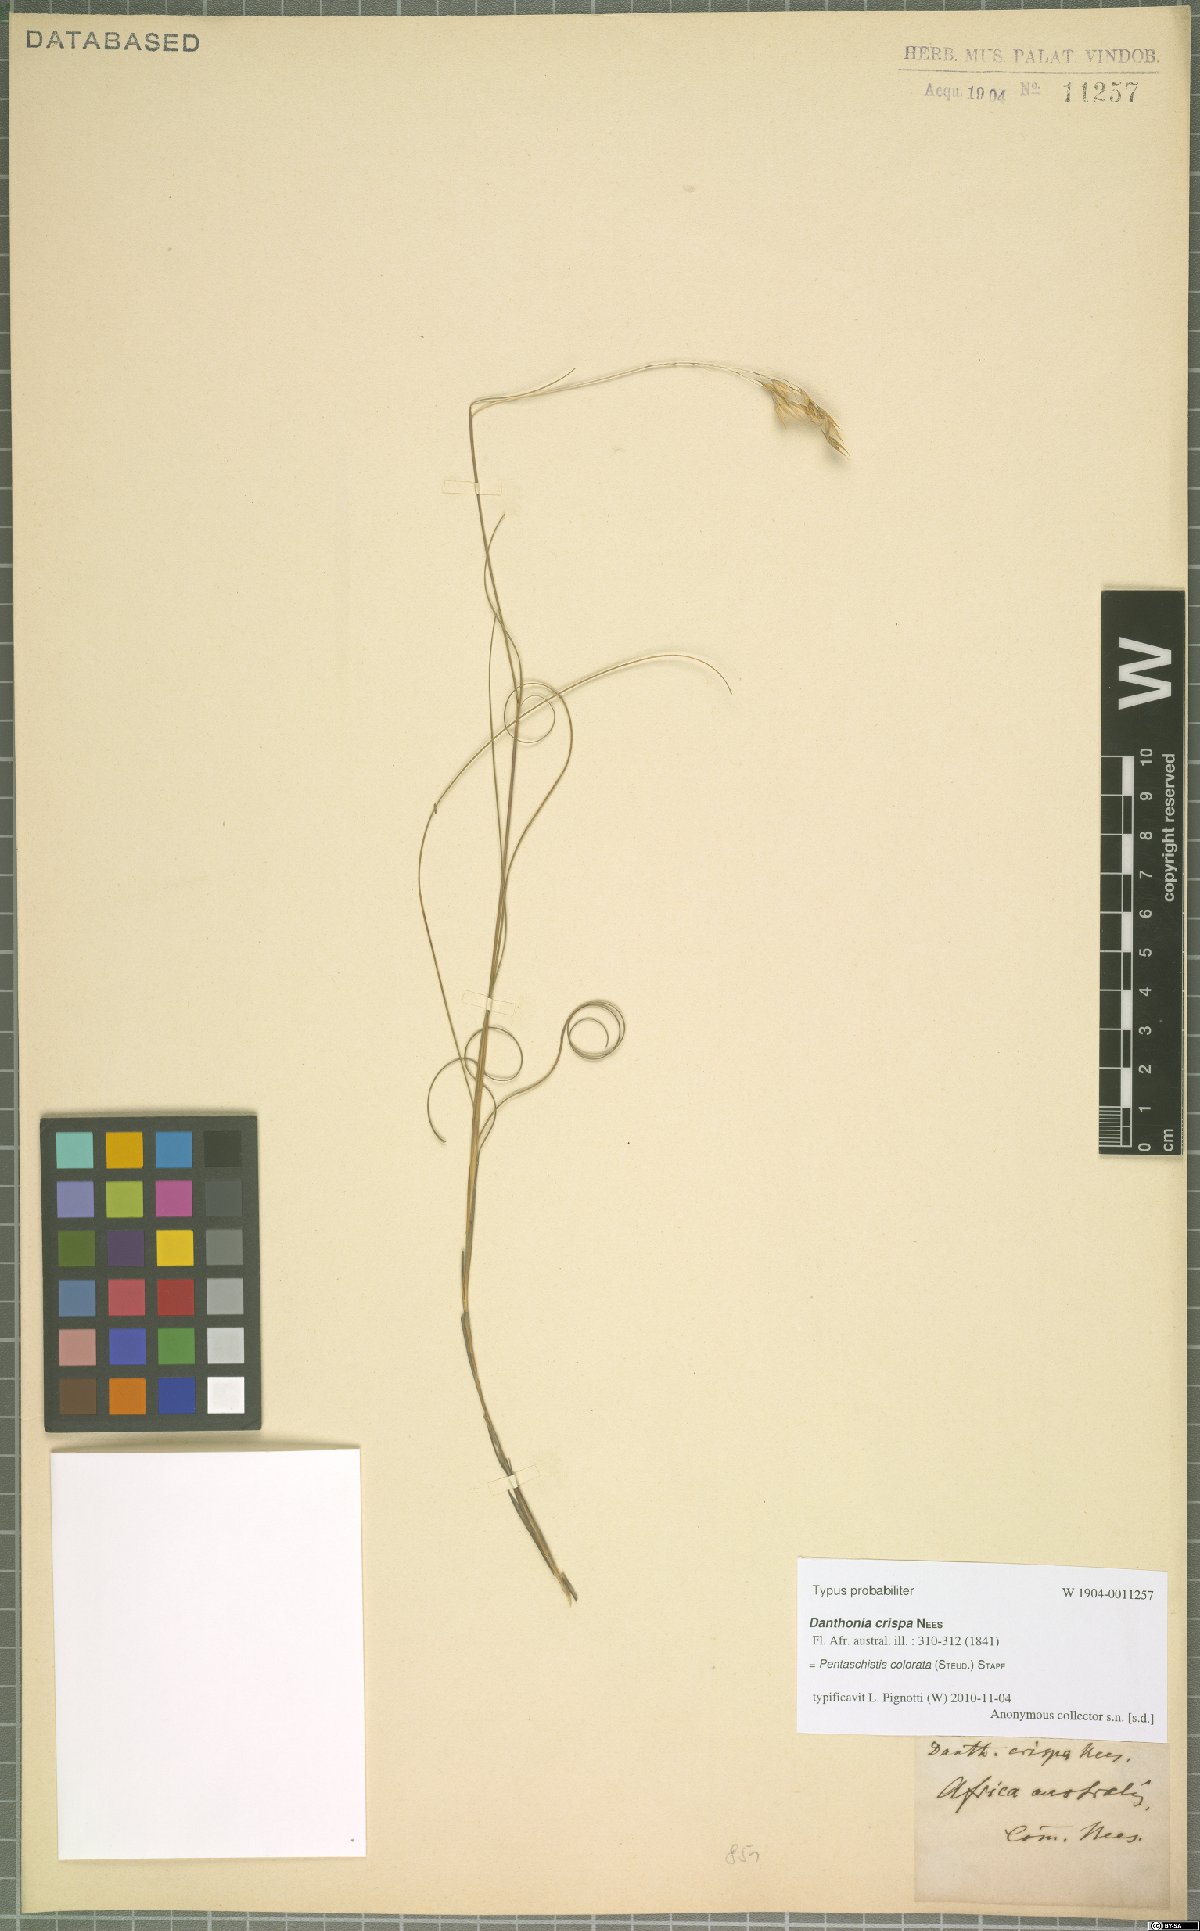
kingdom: Plantae
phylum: Tracheophyta
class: Liliopsida
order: Poales
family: Poaceae
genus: Pentameris
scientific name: Pentameris colorata
